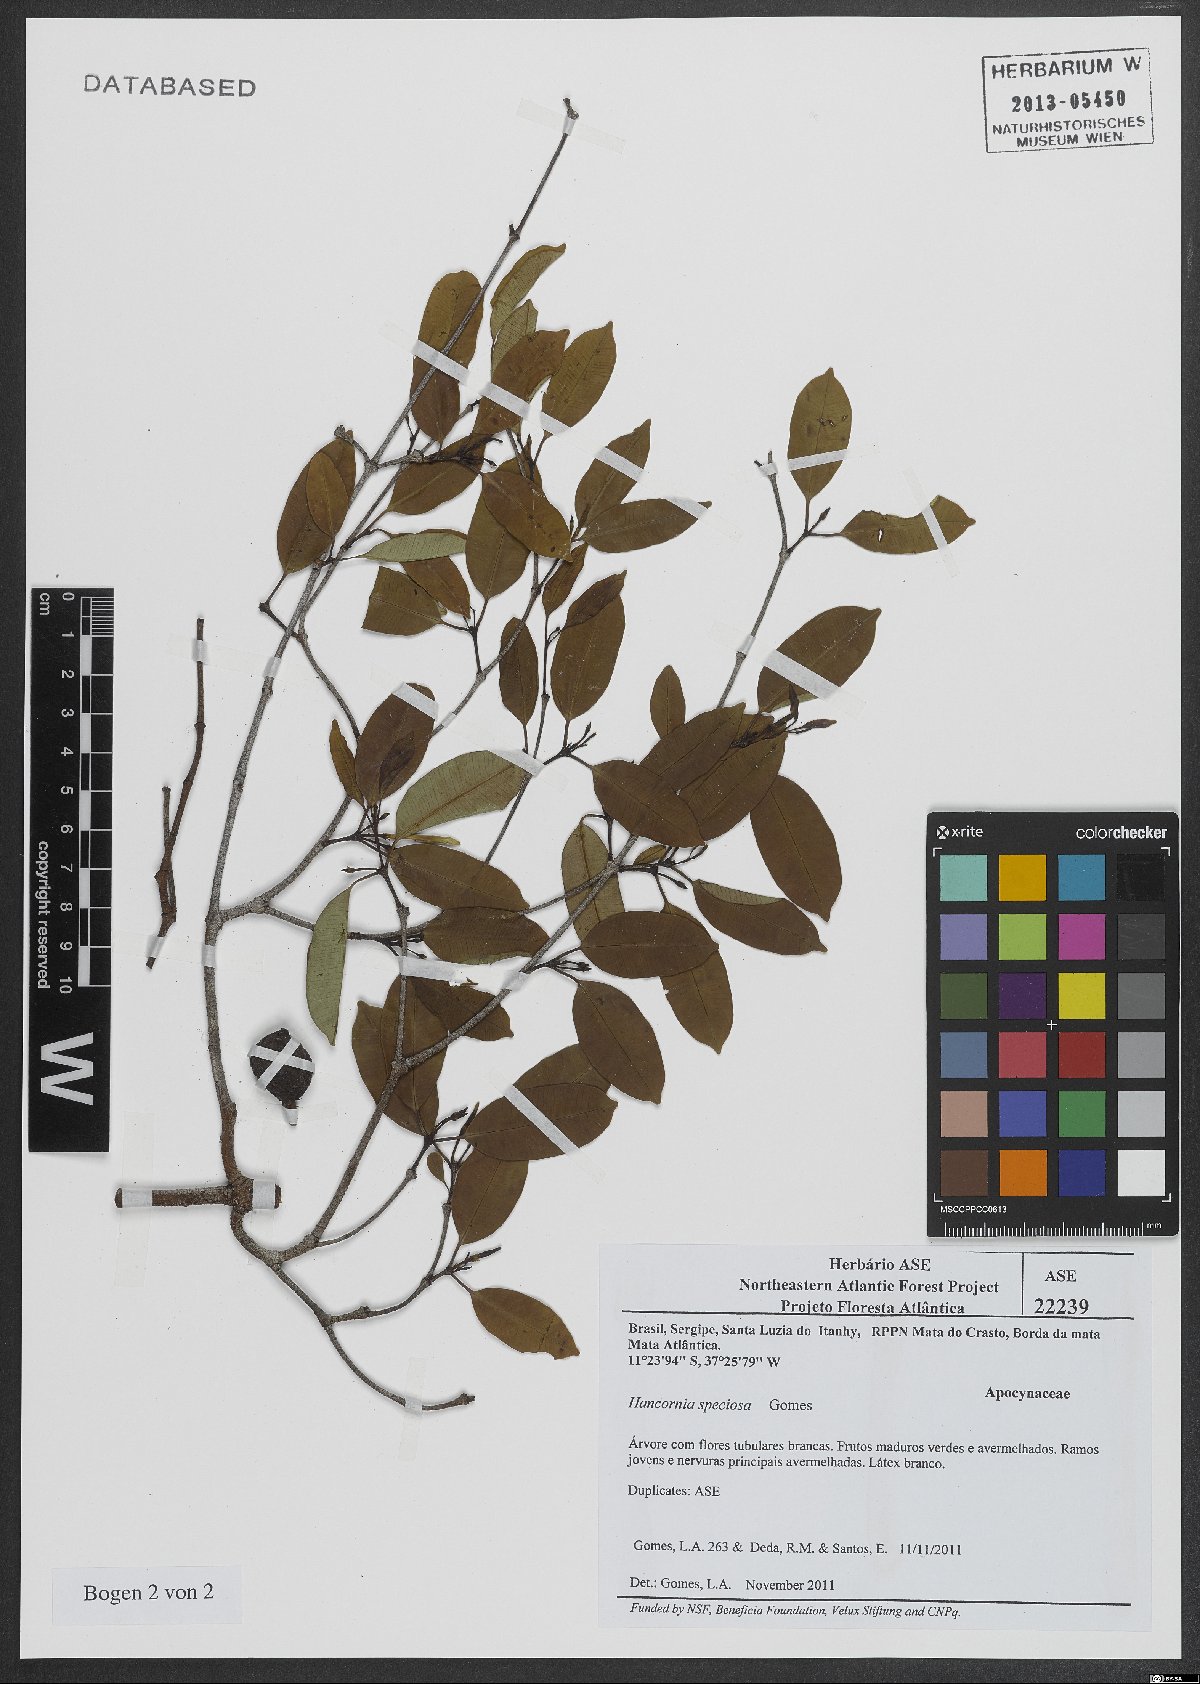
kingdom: Plantae
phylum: Tracheophyta
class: Magnoliopsida
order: Gentianales
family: Apocynaceae
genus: Hancornia
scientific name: Hancornia speciosa
